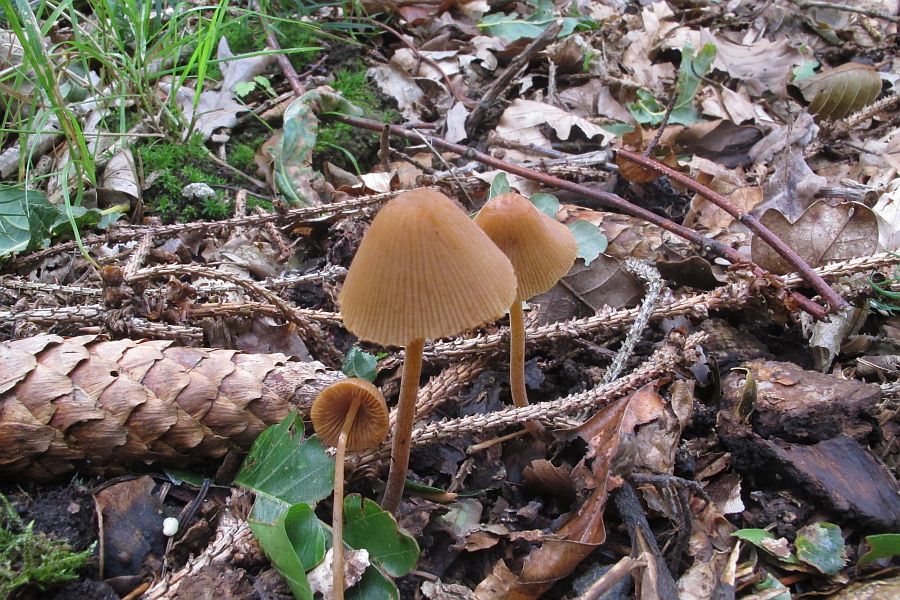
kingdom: Fungi
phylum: Basidiomycota
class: Agaricomycetes
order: Agaricales
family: Bolbitiaceae
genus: Conocybe
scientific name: Conocybe subpubescens
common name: krat-keglehat
